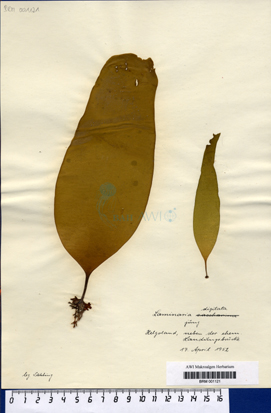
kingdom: Chromista
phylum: Ochrophyta
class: Phaeophyceae
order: Laminariales
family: Laminariaceae
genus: Laminaria
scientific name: Laminaria digitata
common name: Oarweed
